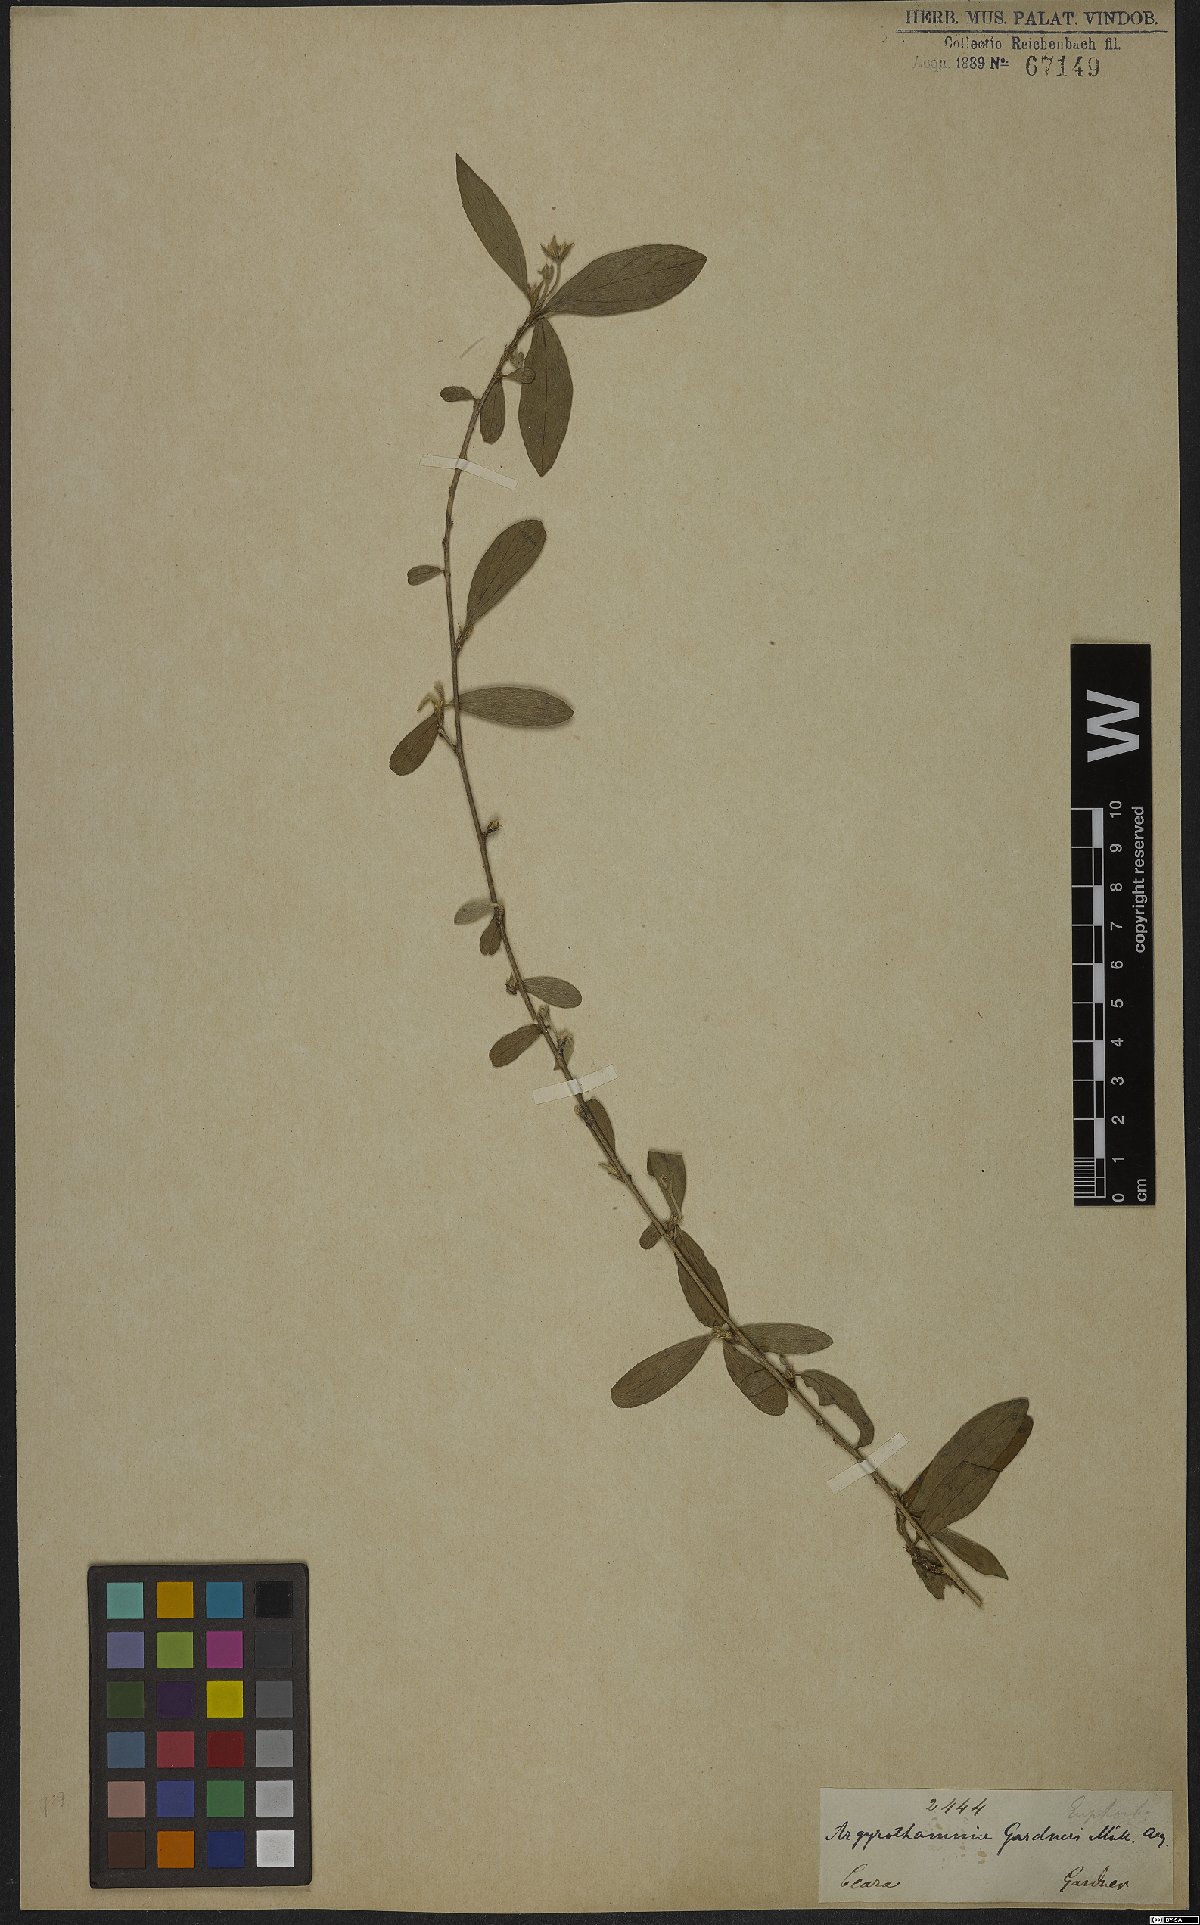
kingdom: Plantae
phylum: Tracheophyta
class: Magnoliopsida
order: Malpighiales
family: Euphorbiaceae
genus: Ditaxis
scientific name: Ditaxis desertorum
